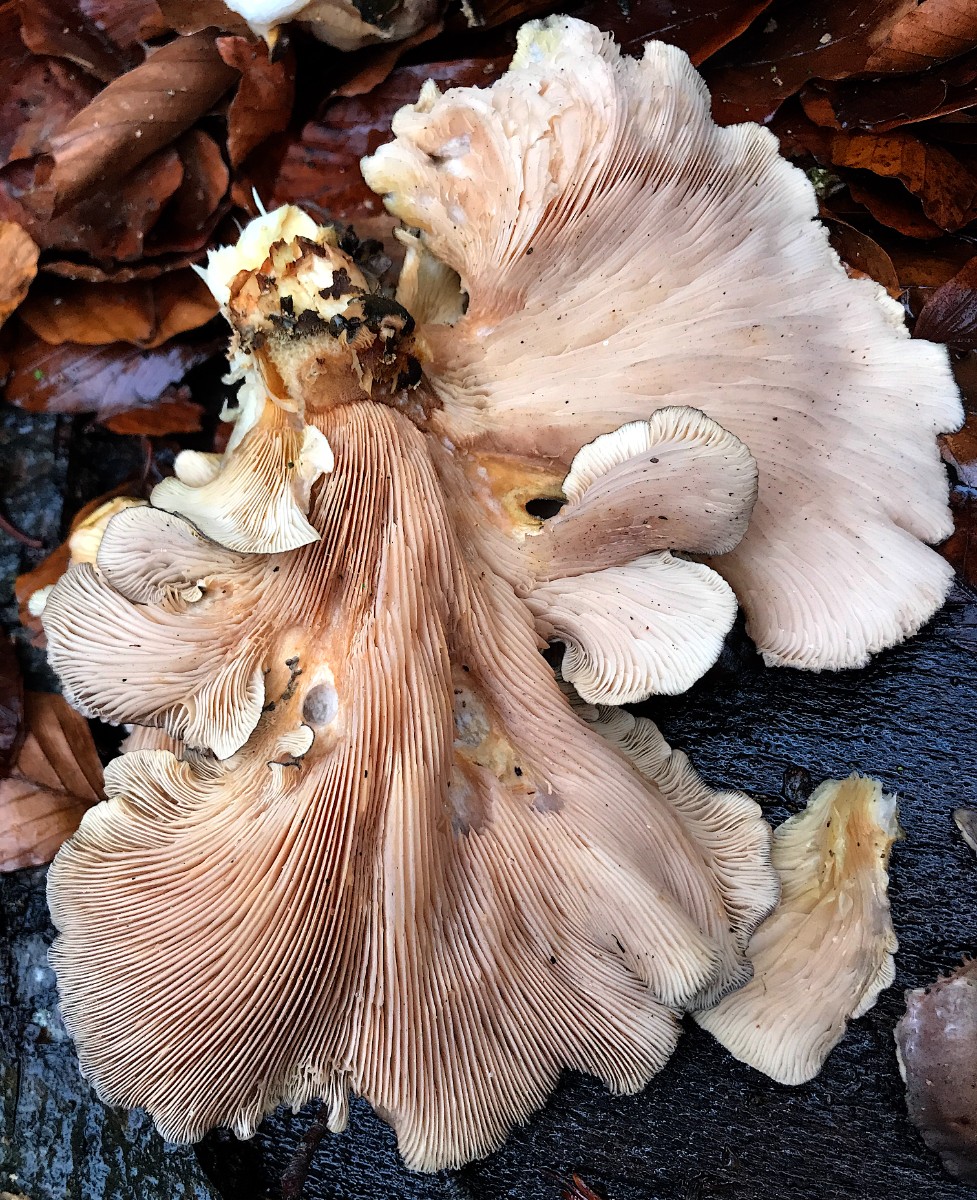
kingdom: Fungi
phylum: Basidiomycota
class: Agaricomycetes
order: Agaricales
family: Sarcomyxaceae
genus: Sarcomyxa
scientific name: Sarcomyxa serotina
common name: gummihat
